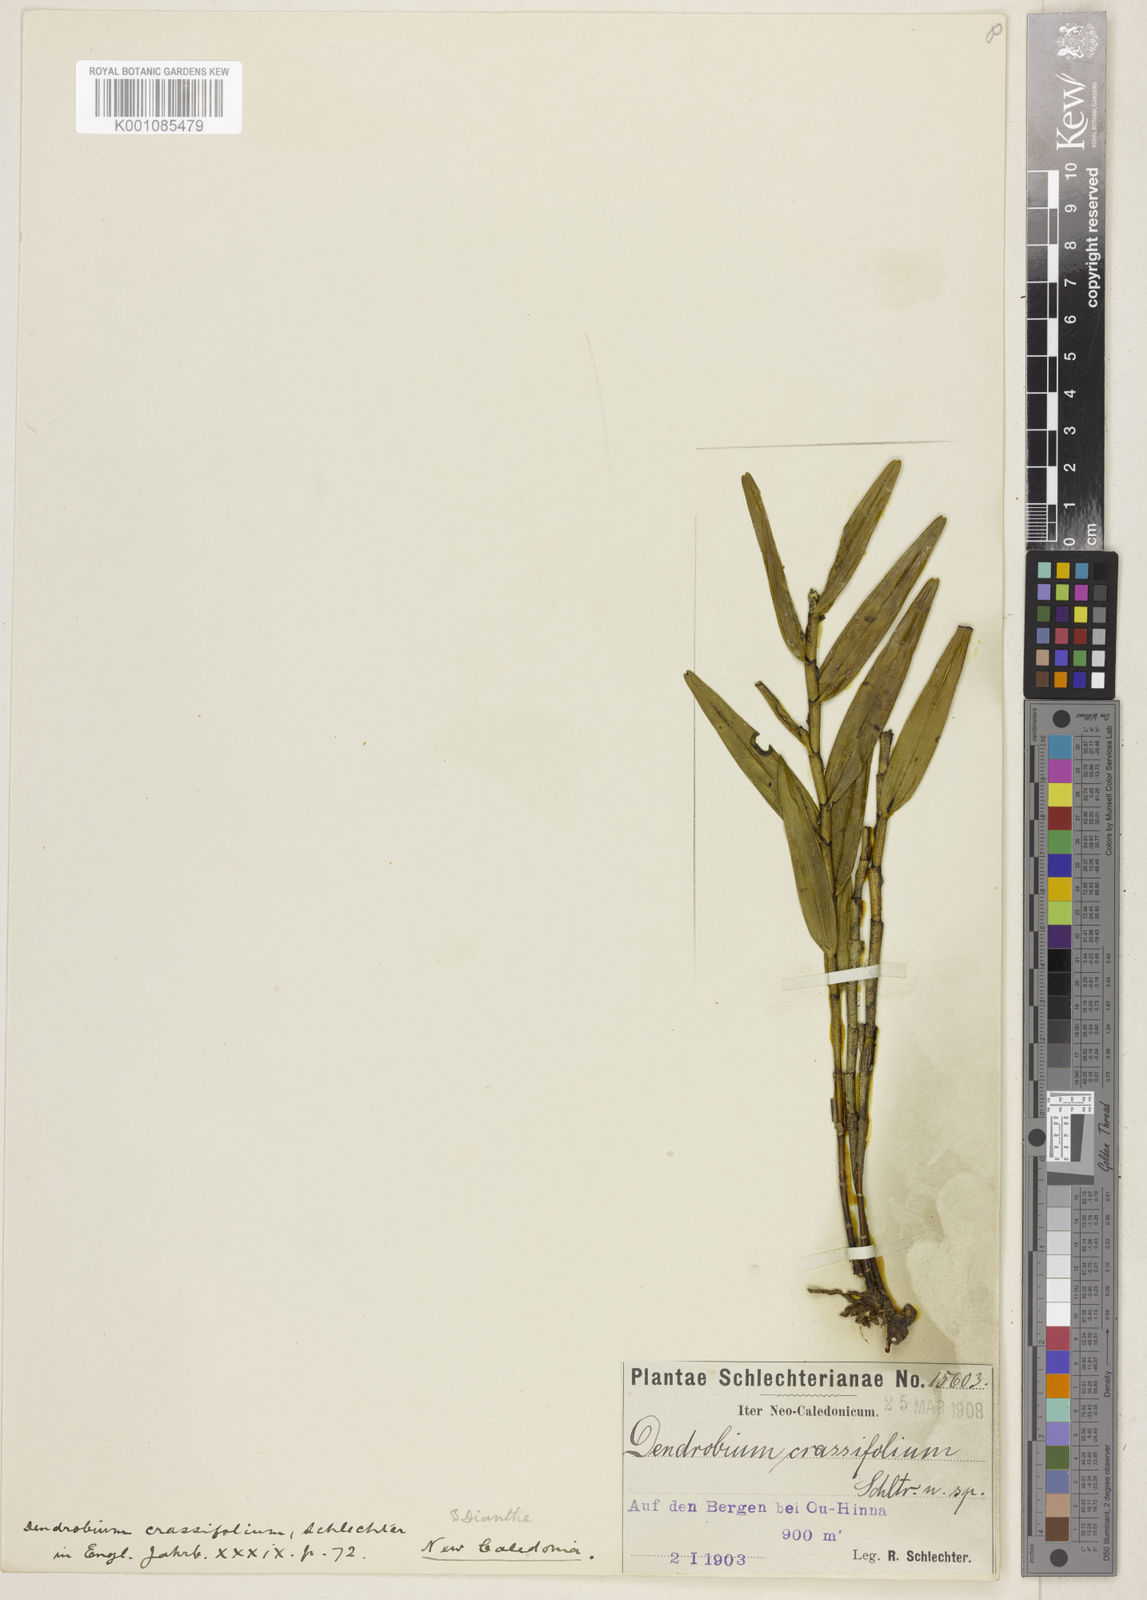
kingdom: Plantae
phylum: Tracheophyta
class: Liliopsida
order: Asparagales
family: Orchidaceae
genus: Dendrobium
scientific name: Dendrobium
